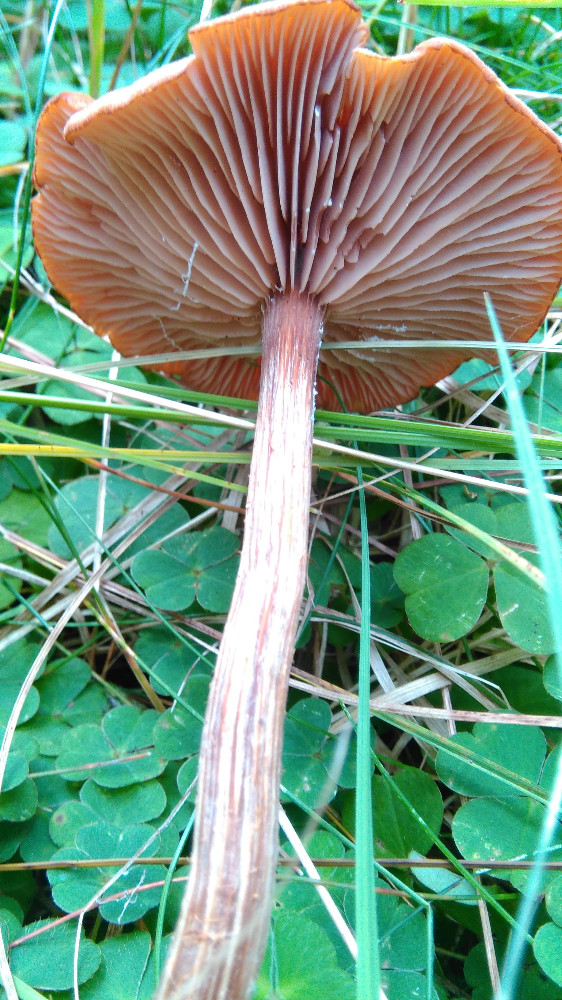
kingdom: Fungi
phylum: Basidiomycota
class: Agaricomycetes
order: Agaricales
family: Hydnangiaceae
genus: Laccaria
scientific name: Laccaria proxima
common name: stor ametysthat
